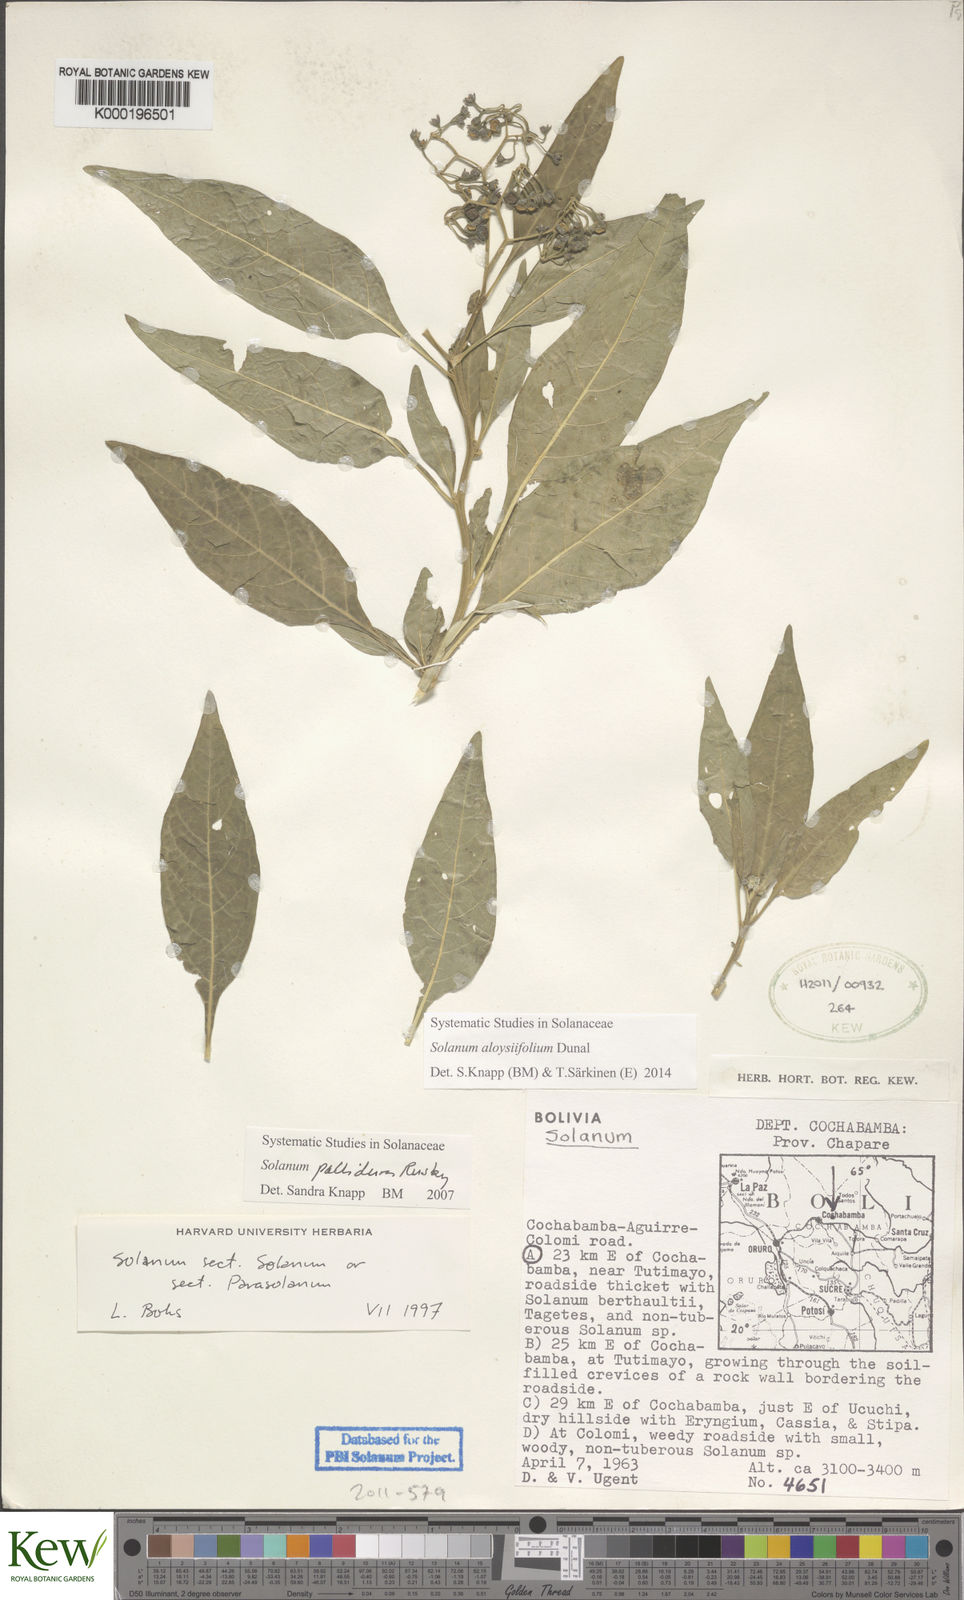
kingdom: Plantae
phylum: Tracheophyta
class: Magnoliopsida
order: Solanales
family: Solanaceae
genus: Solanum
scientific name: Solanum aloysiifolium
